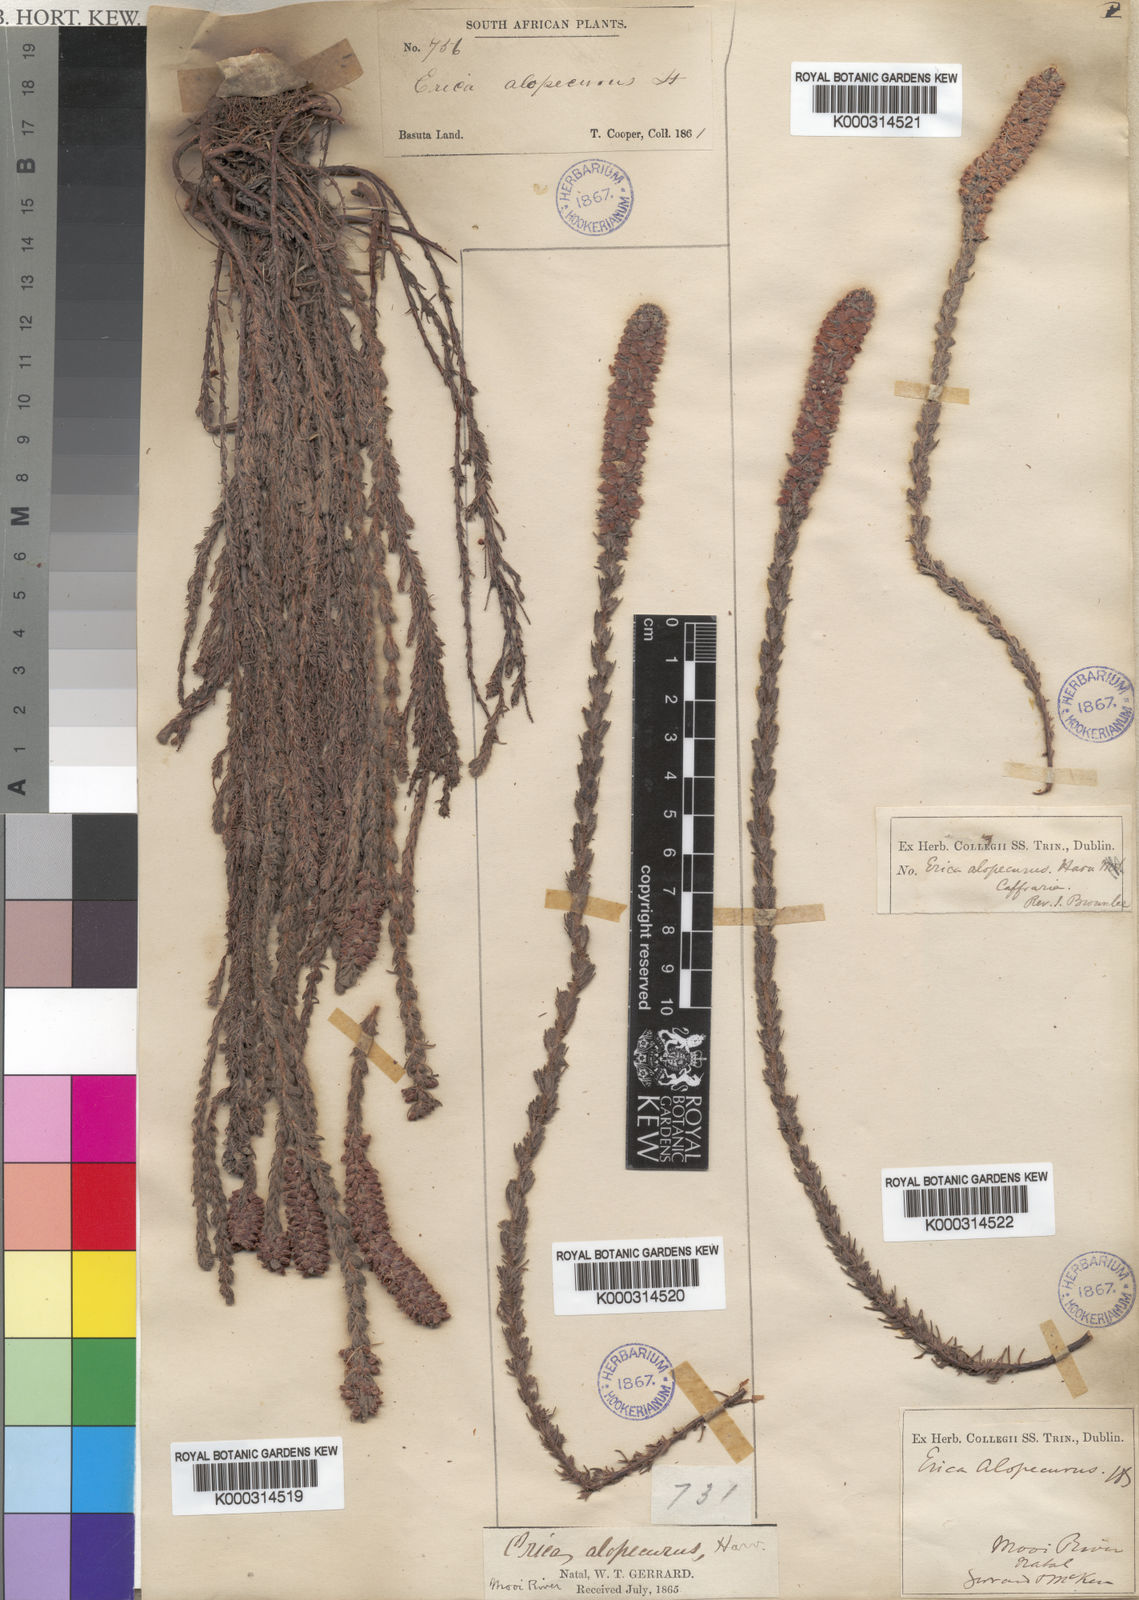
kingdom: Plantae
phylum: Tracheophyta
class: Magnoliopsida
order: Ericales
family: Ericaceae
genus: Erica
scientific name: Erica alopecurus
